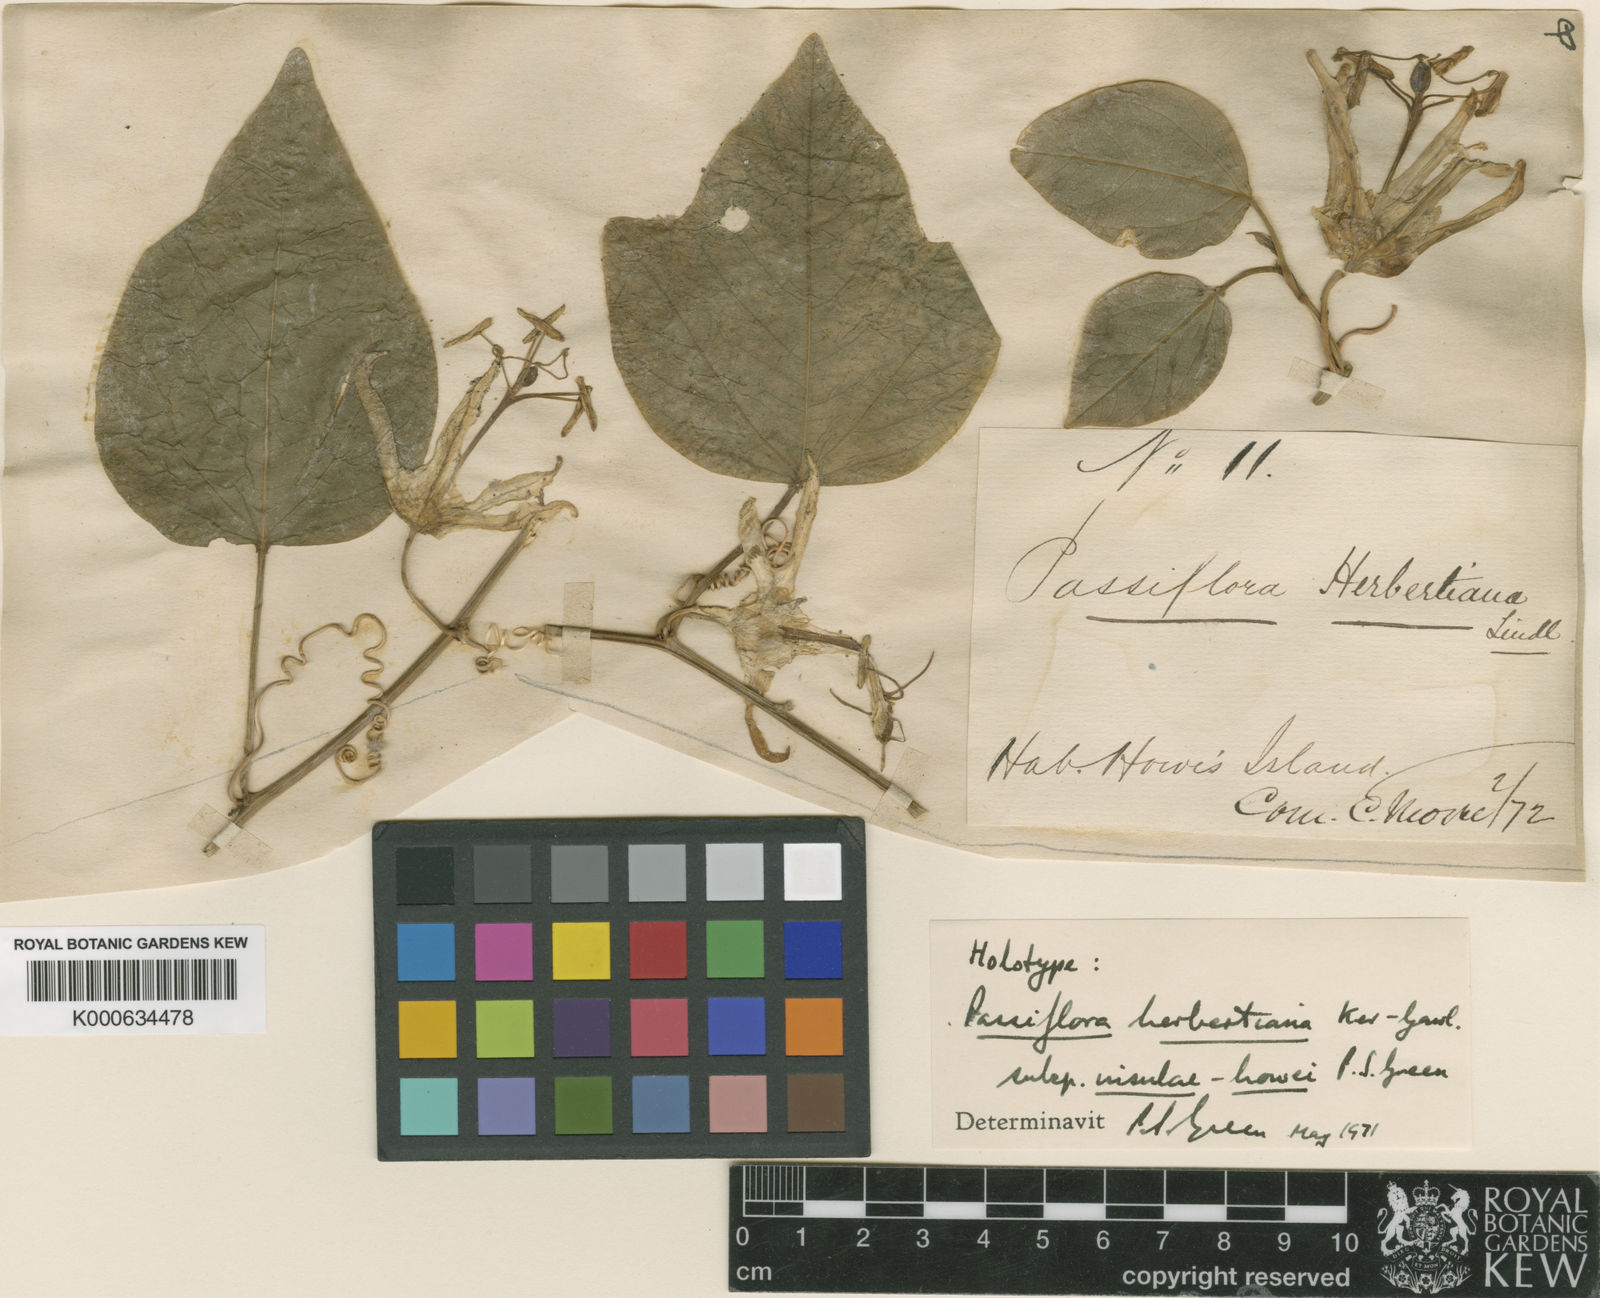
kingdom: Plantae
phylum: Tracheophyta
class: Magnoliopsida
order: Malpighiales
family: Passifloraceae
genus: Passiflora
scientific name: Passiflora herbertiana
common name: Yellow passionflower
